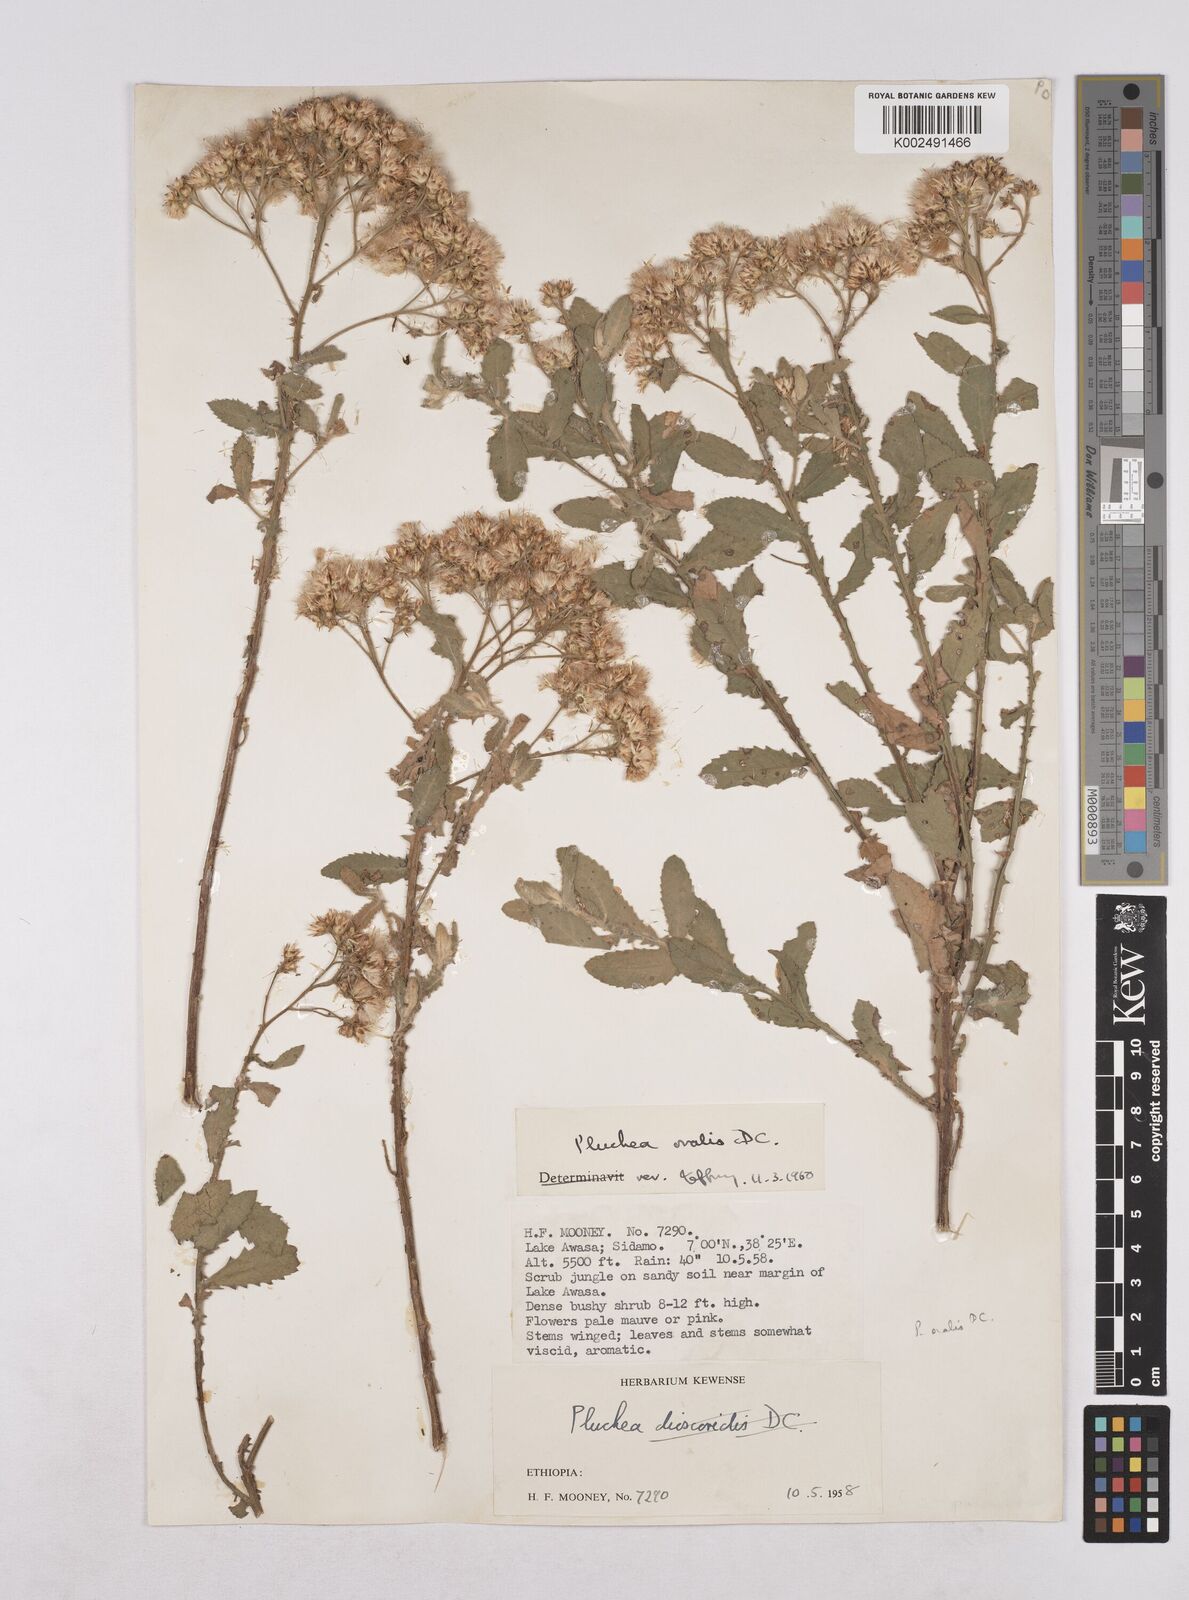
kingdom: Plantae
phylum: Tracheophyta
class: Magnoliopsida
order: Asterales
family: Asteraceae
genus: Pluchea
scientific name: Pluchea ovalis
